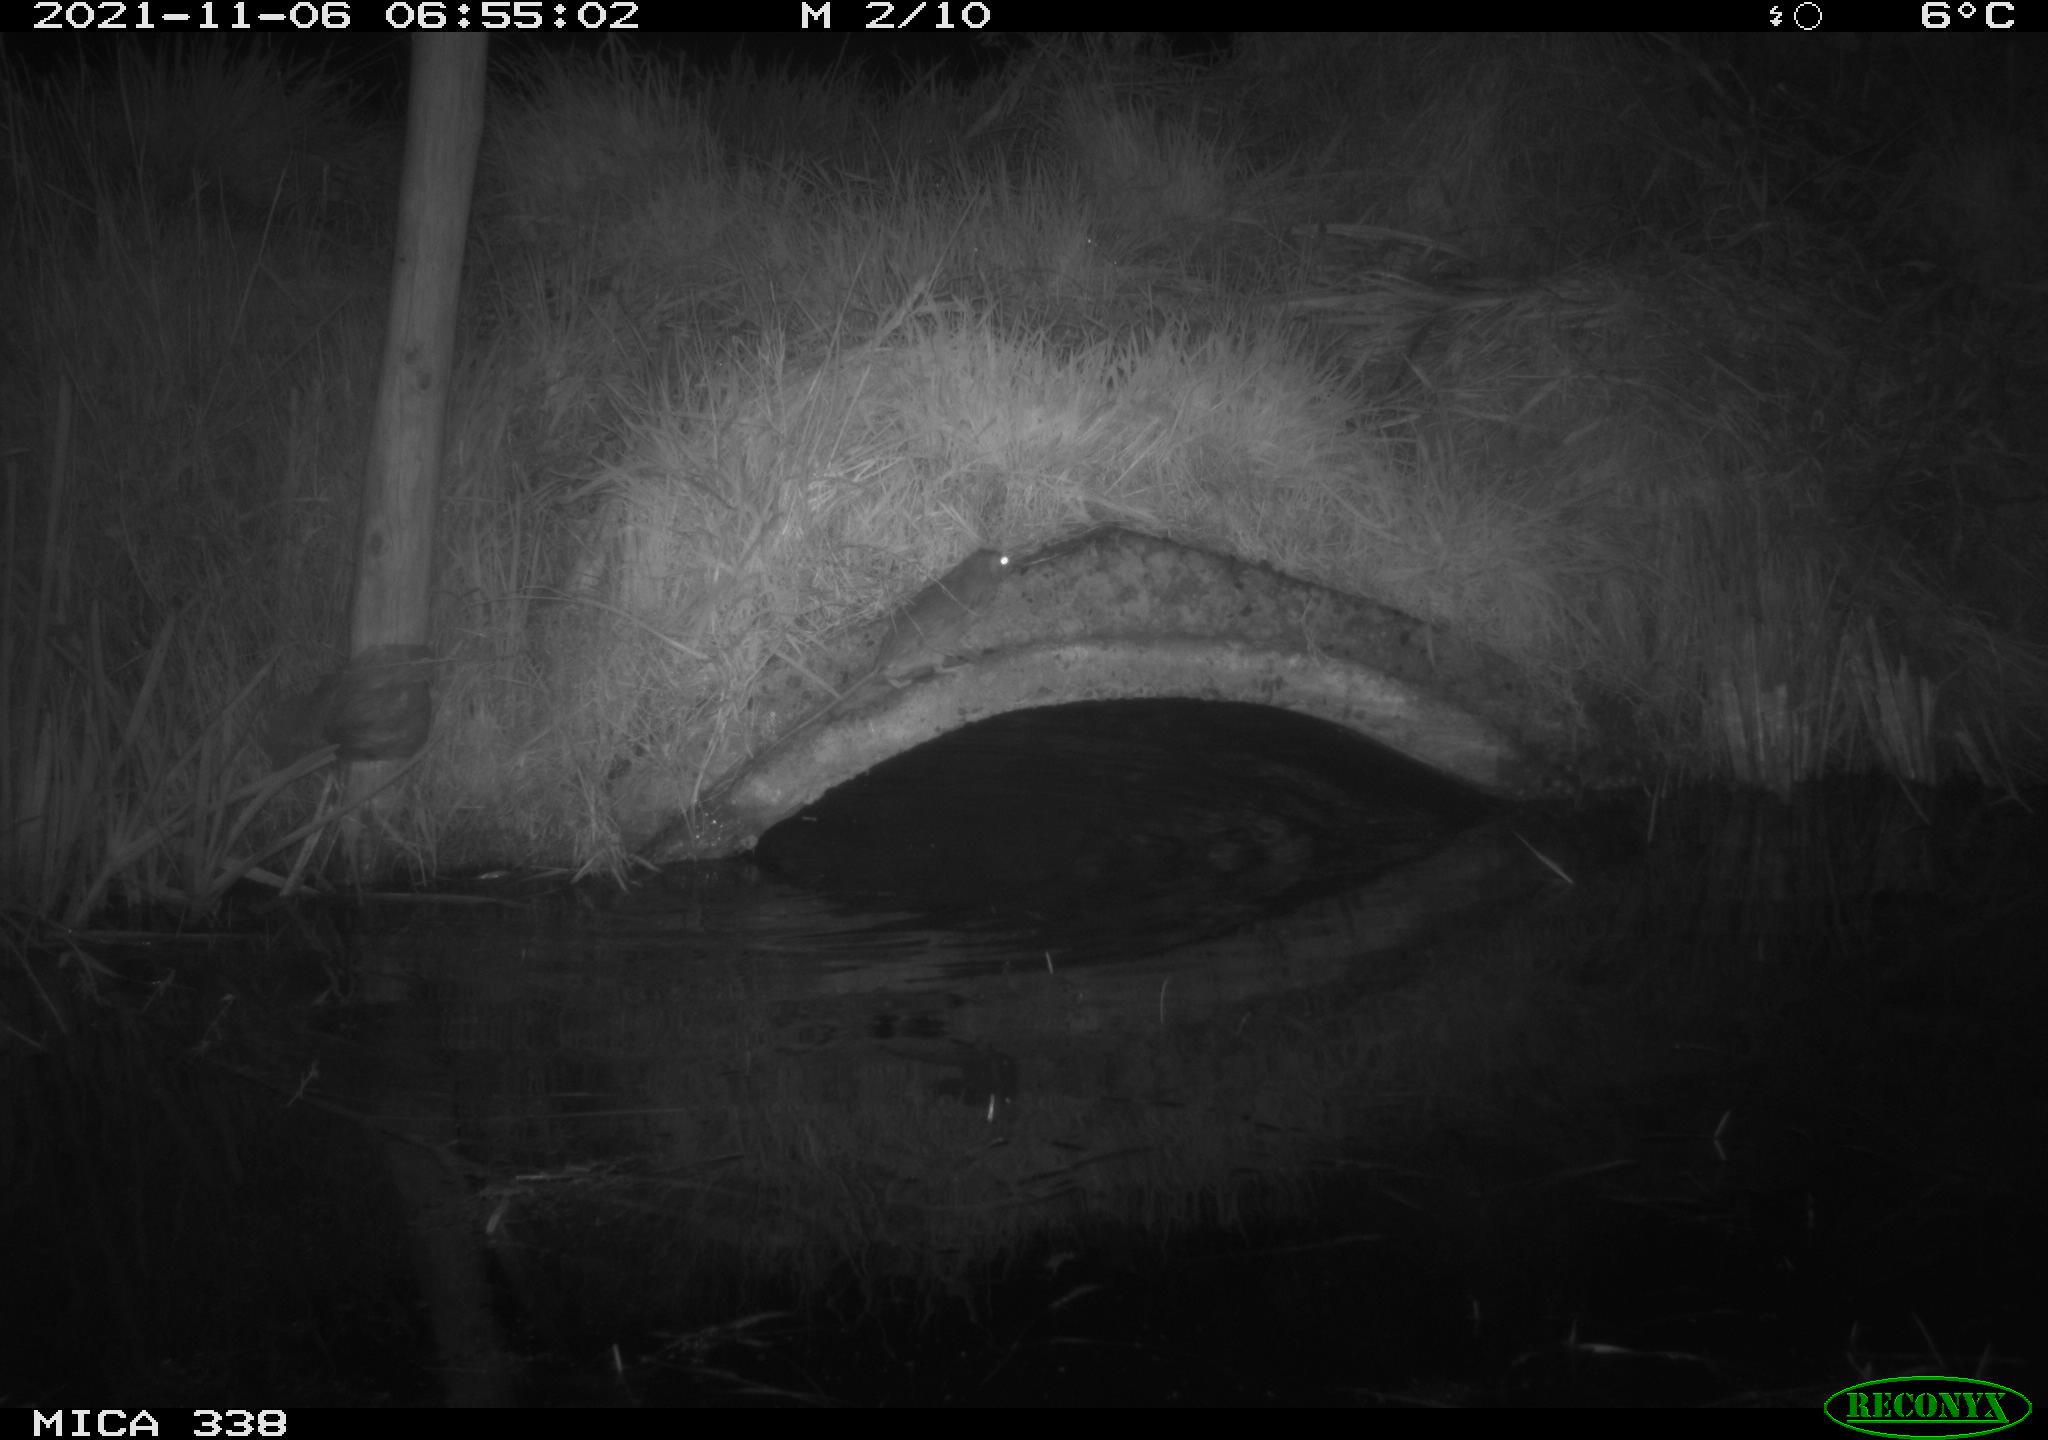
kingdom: Animalia
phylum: Chordata
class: Mammalia
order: Rodentia
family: Muridae
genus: Rattus
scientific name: Rattus norvegicus
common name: Brown rat
